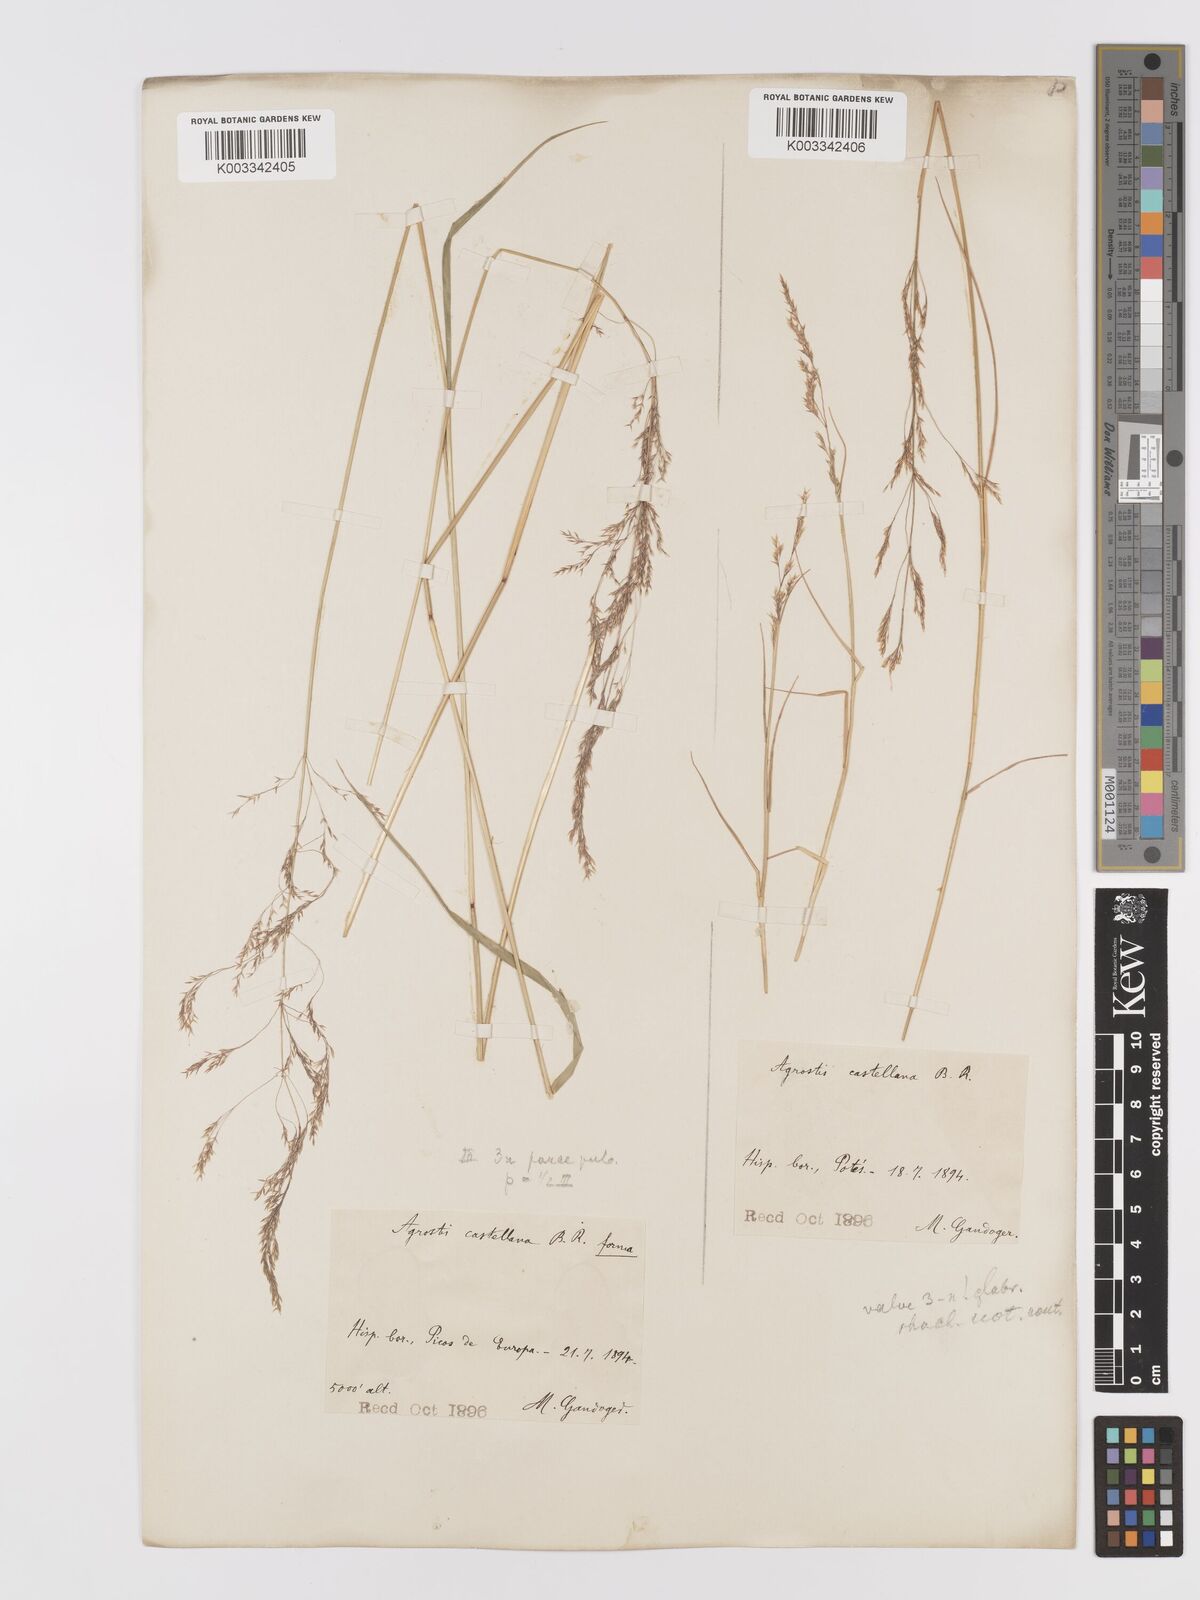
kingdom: Plantae
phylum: Tracheophyta
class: Liliopsida
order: Poales
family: Poaceae
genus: Agrostis
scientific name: Agrostis castellana
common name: Highland bent
